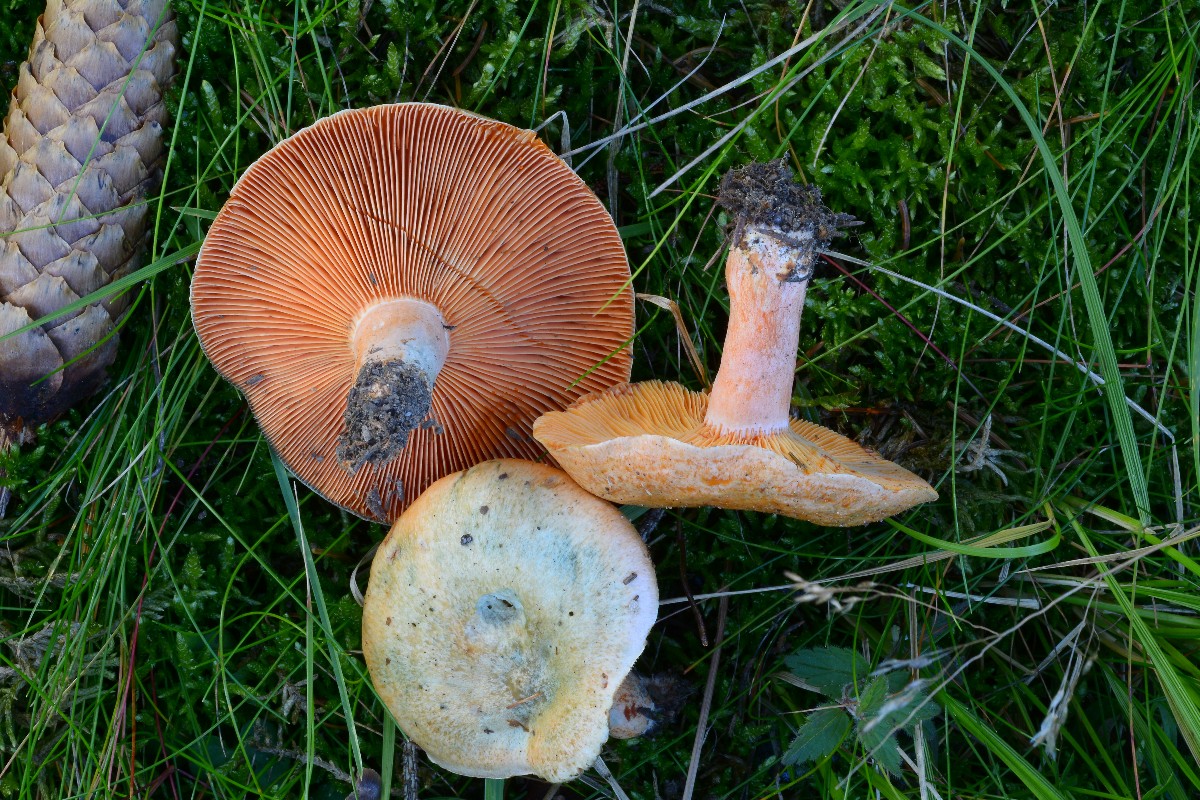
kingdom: Fungi
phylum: Basidiomycota
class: Agaricomycetes
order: Russulales
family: Russulaceae
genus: Lactarius
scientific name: Lactarius deterrimus
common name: gran-mælkehat
